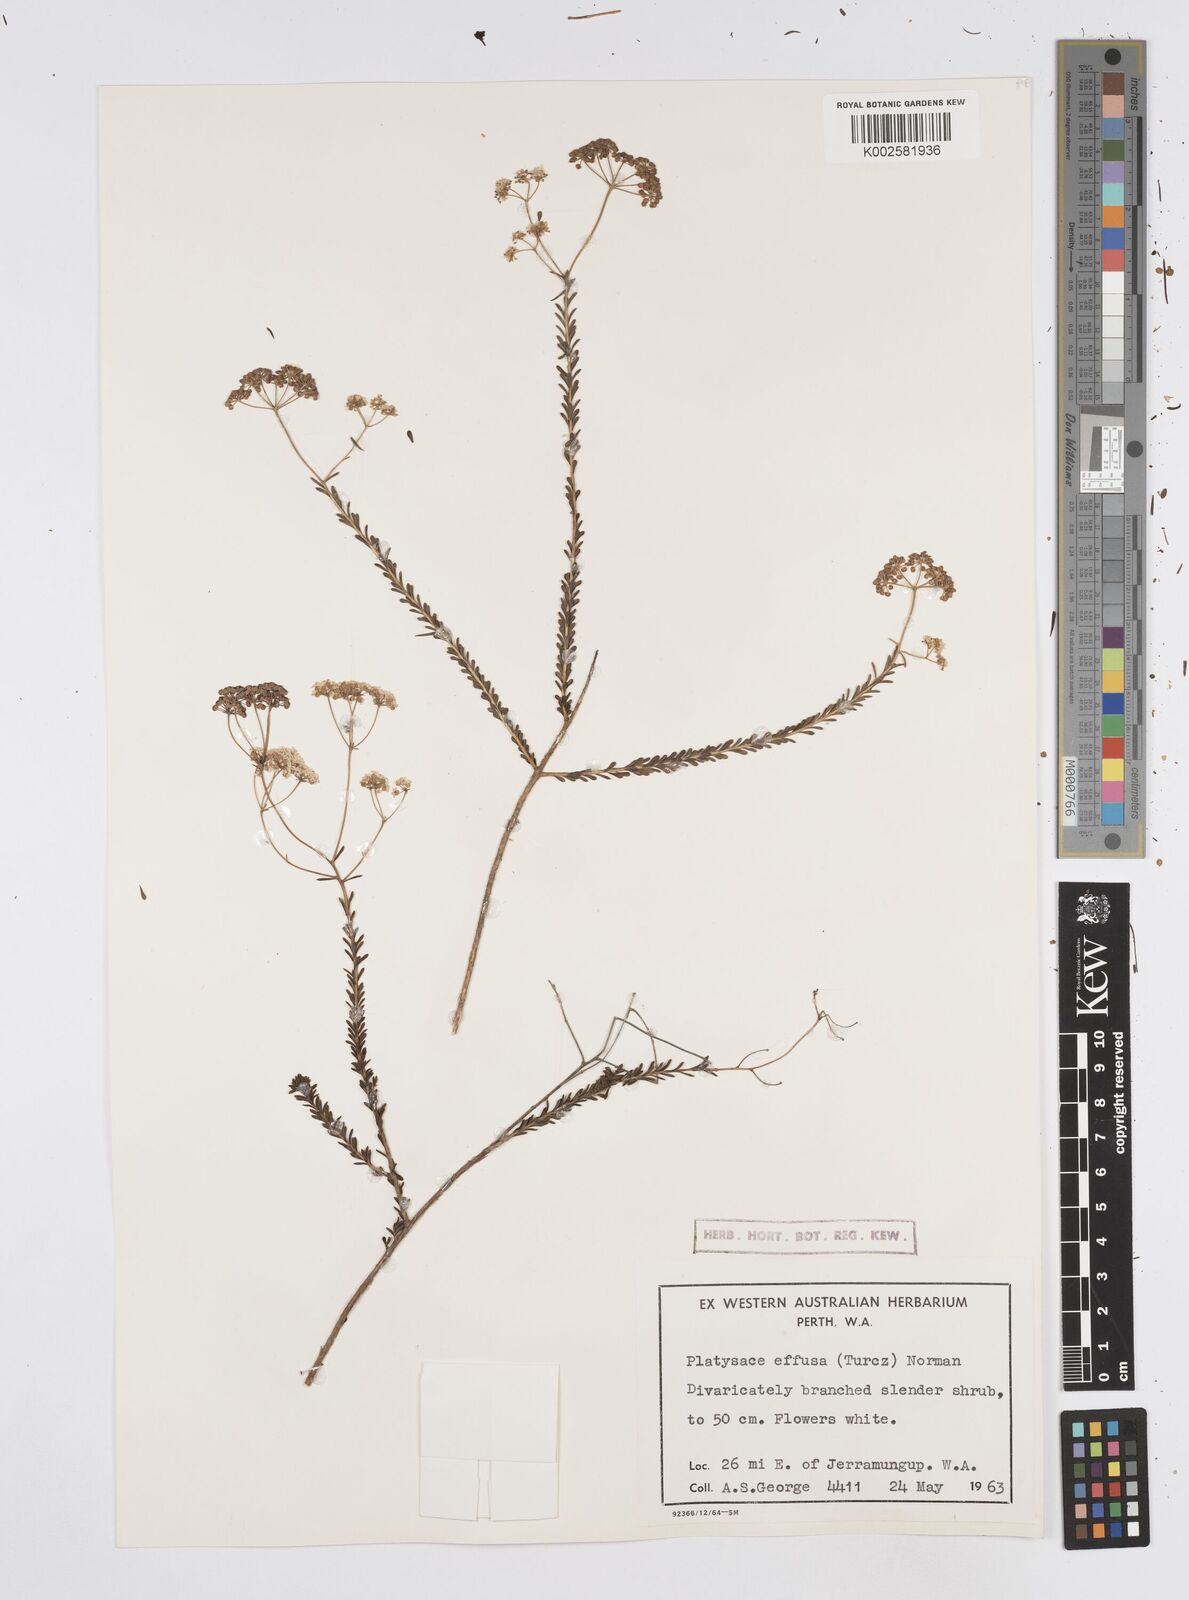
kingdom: Plantae
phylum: Tracheophyta
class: Magnoliopsida
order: Apiales
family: Apiaceae
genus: Platysace
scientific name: Platysace effusa
